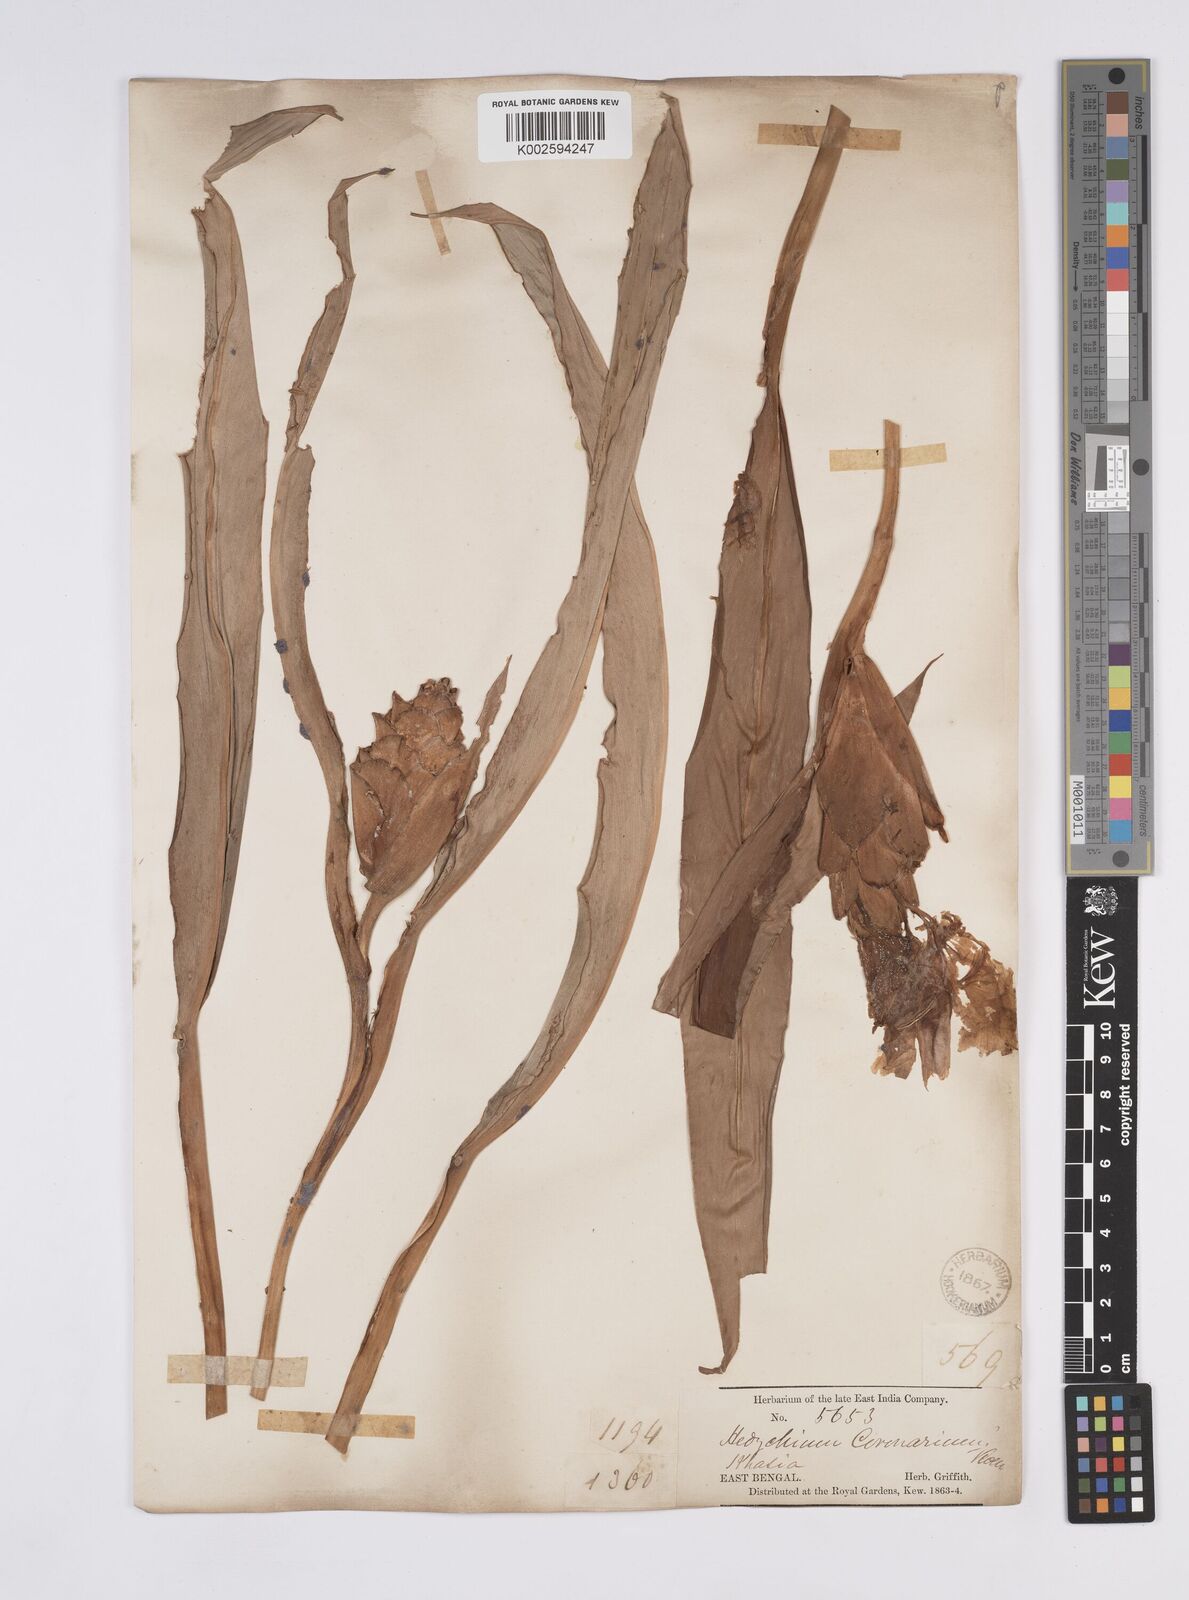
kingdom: Plantae
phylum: Tracheophyta
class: Liliopsida
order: Zingiberales
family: Zingiberaceae
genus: Hedychium
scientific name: Hedychium coronarium
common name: White garland-lily
